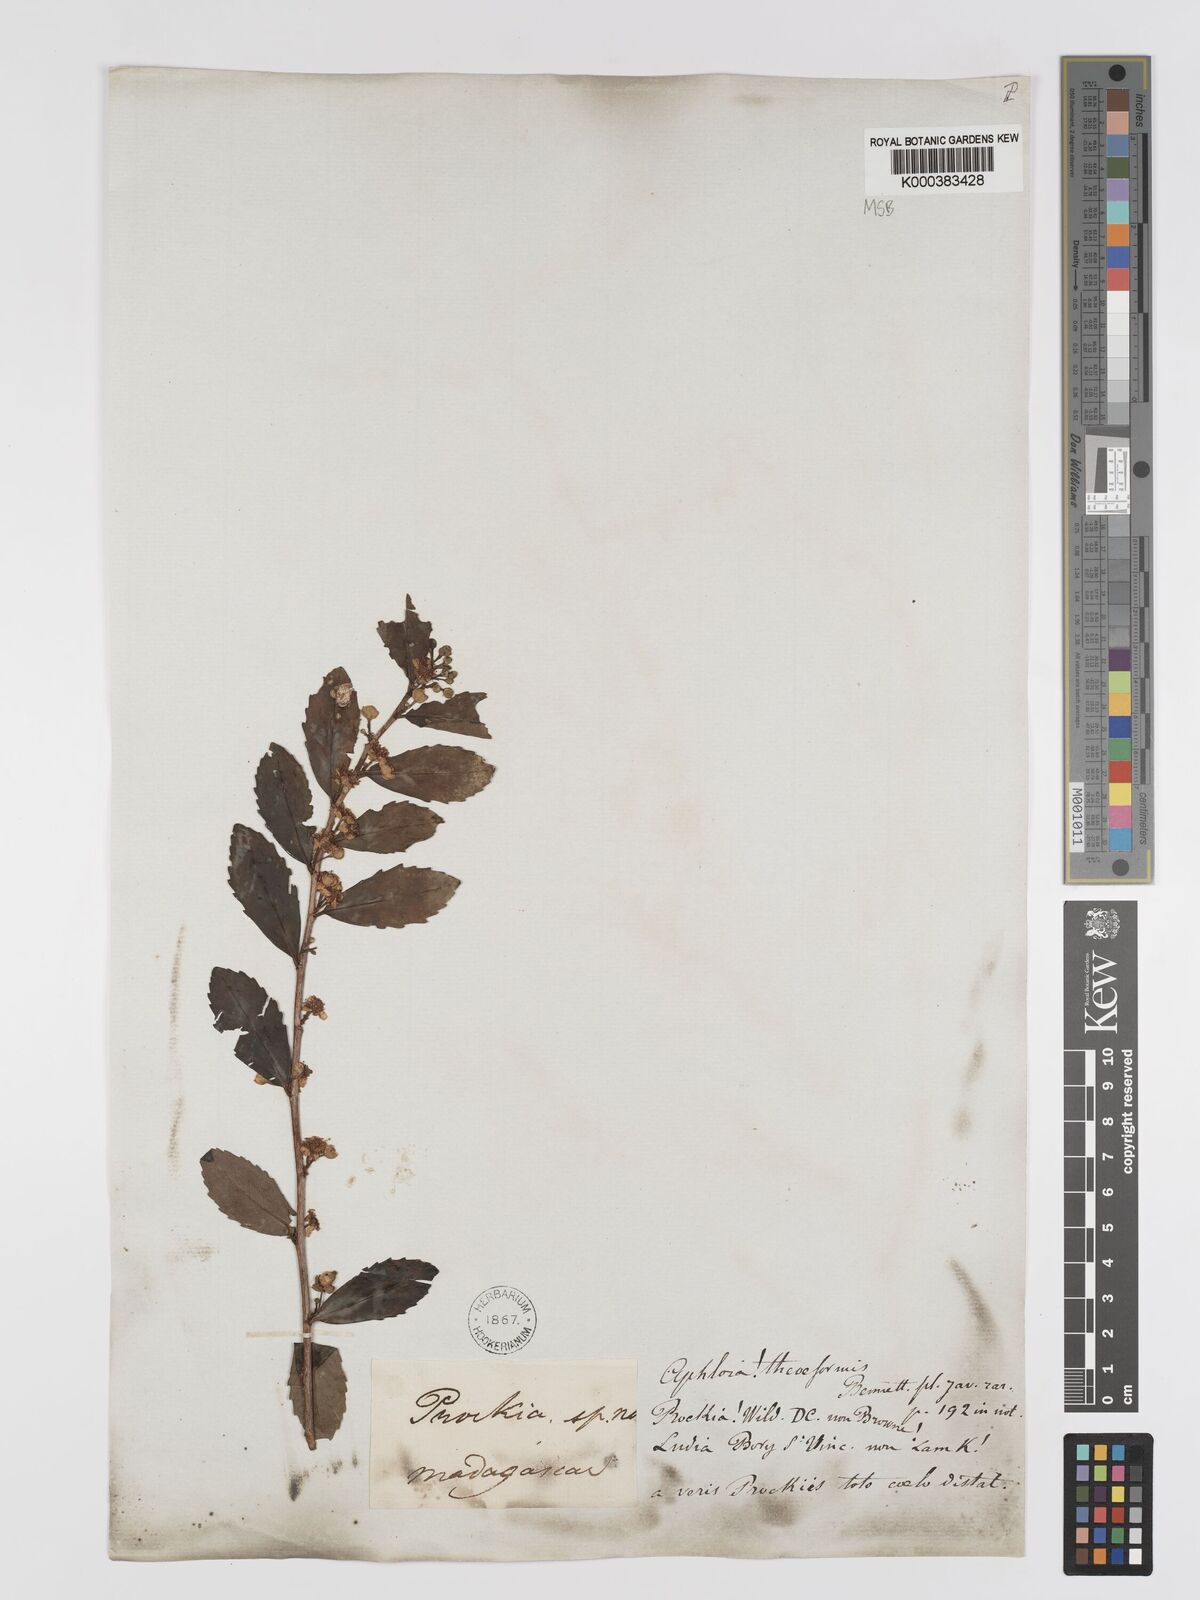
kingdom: Plantae
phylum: Tracheophyta
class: Magnoliopsida
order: Crossosomatales
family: Aphloiaceae
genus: Aphloia
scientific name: Aphloia theiformis
